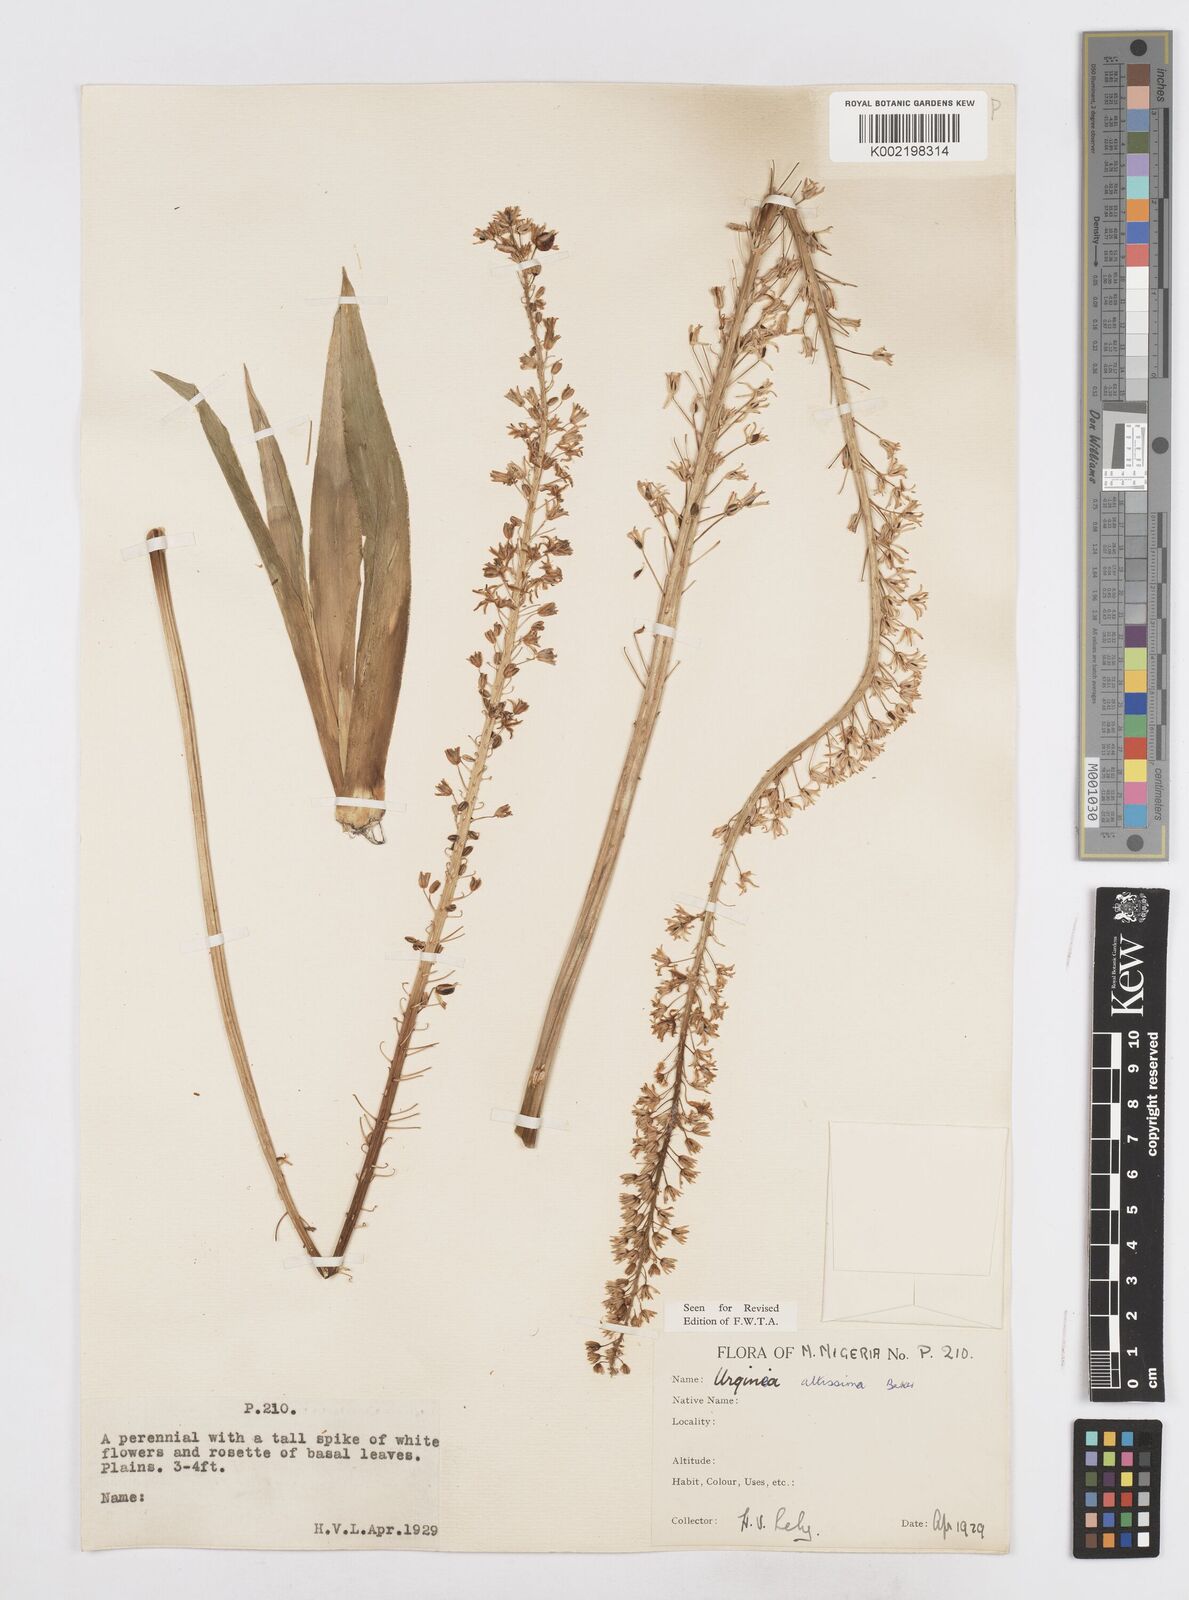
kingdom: Plantae
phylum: Tracheophyta
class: Liliopsida
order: Asparagales
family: Asparagaceae
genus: Drimia
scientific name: Drimia altissima
